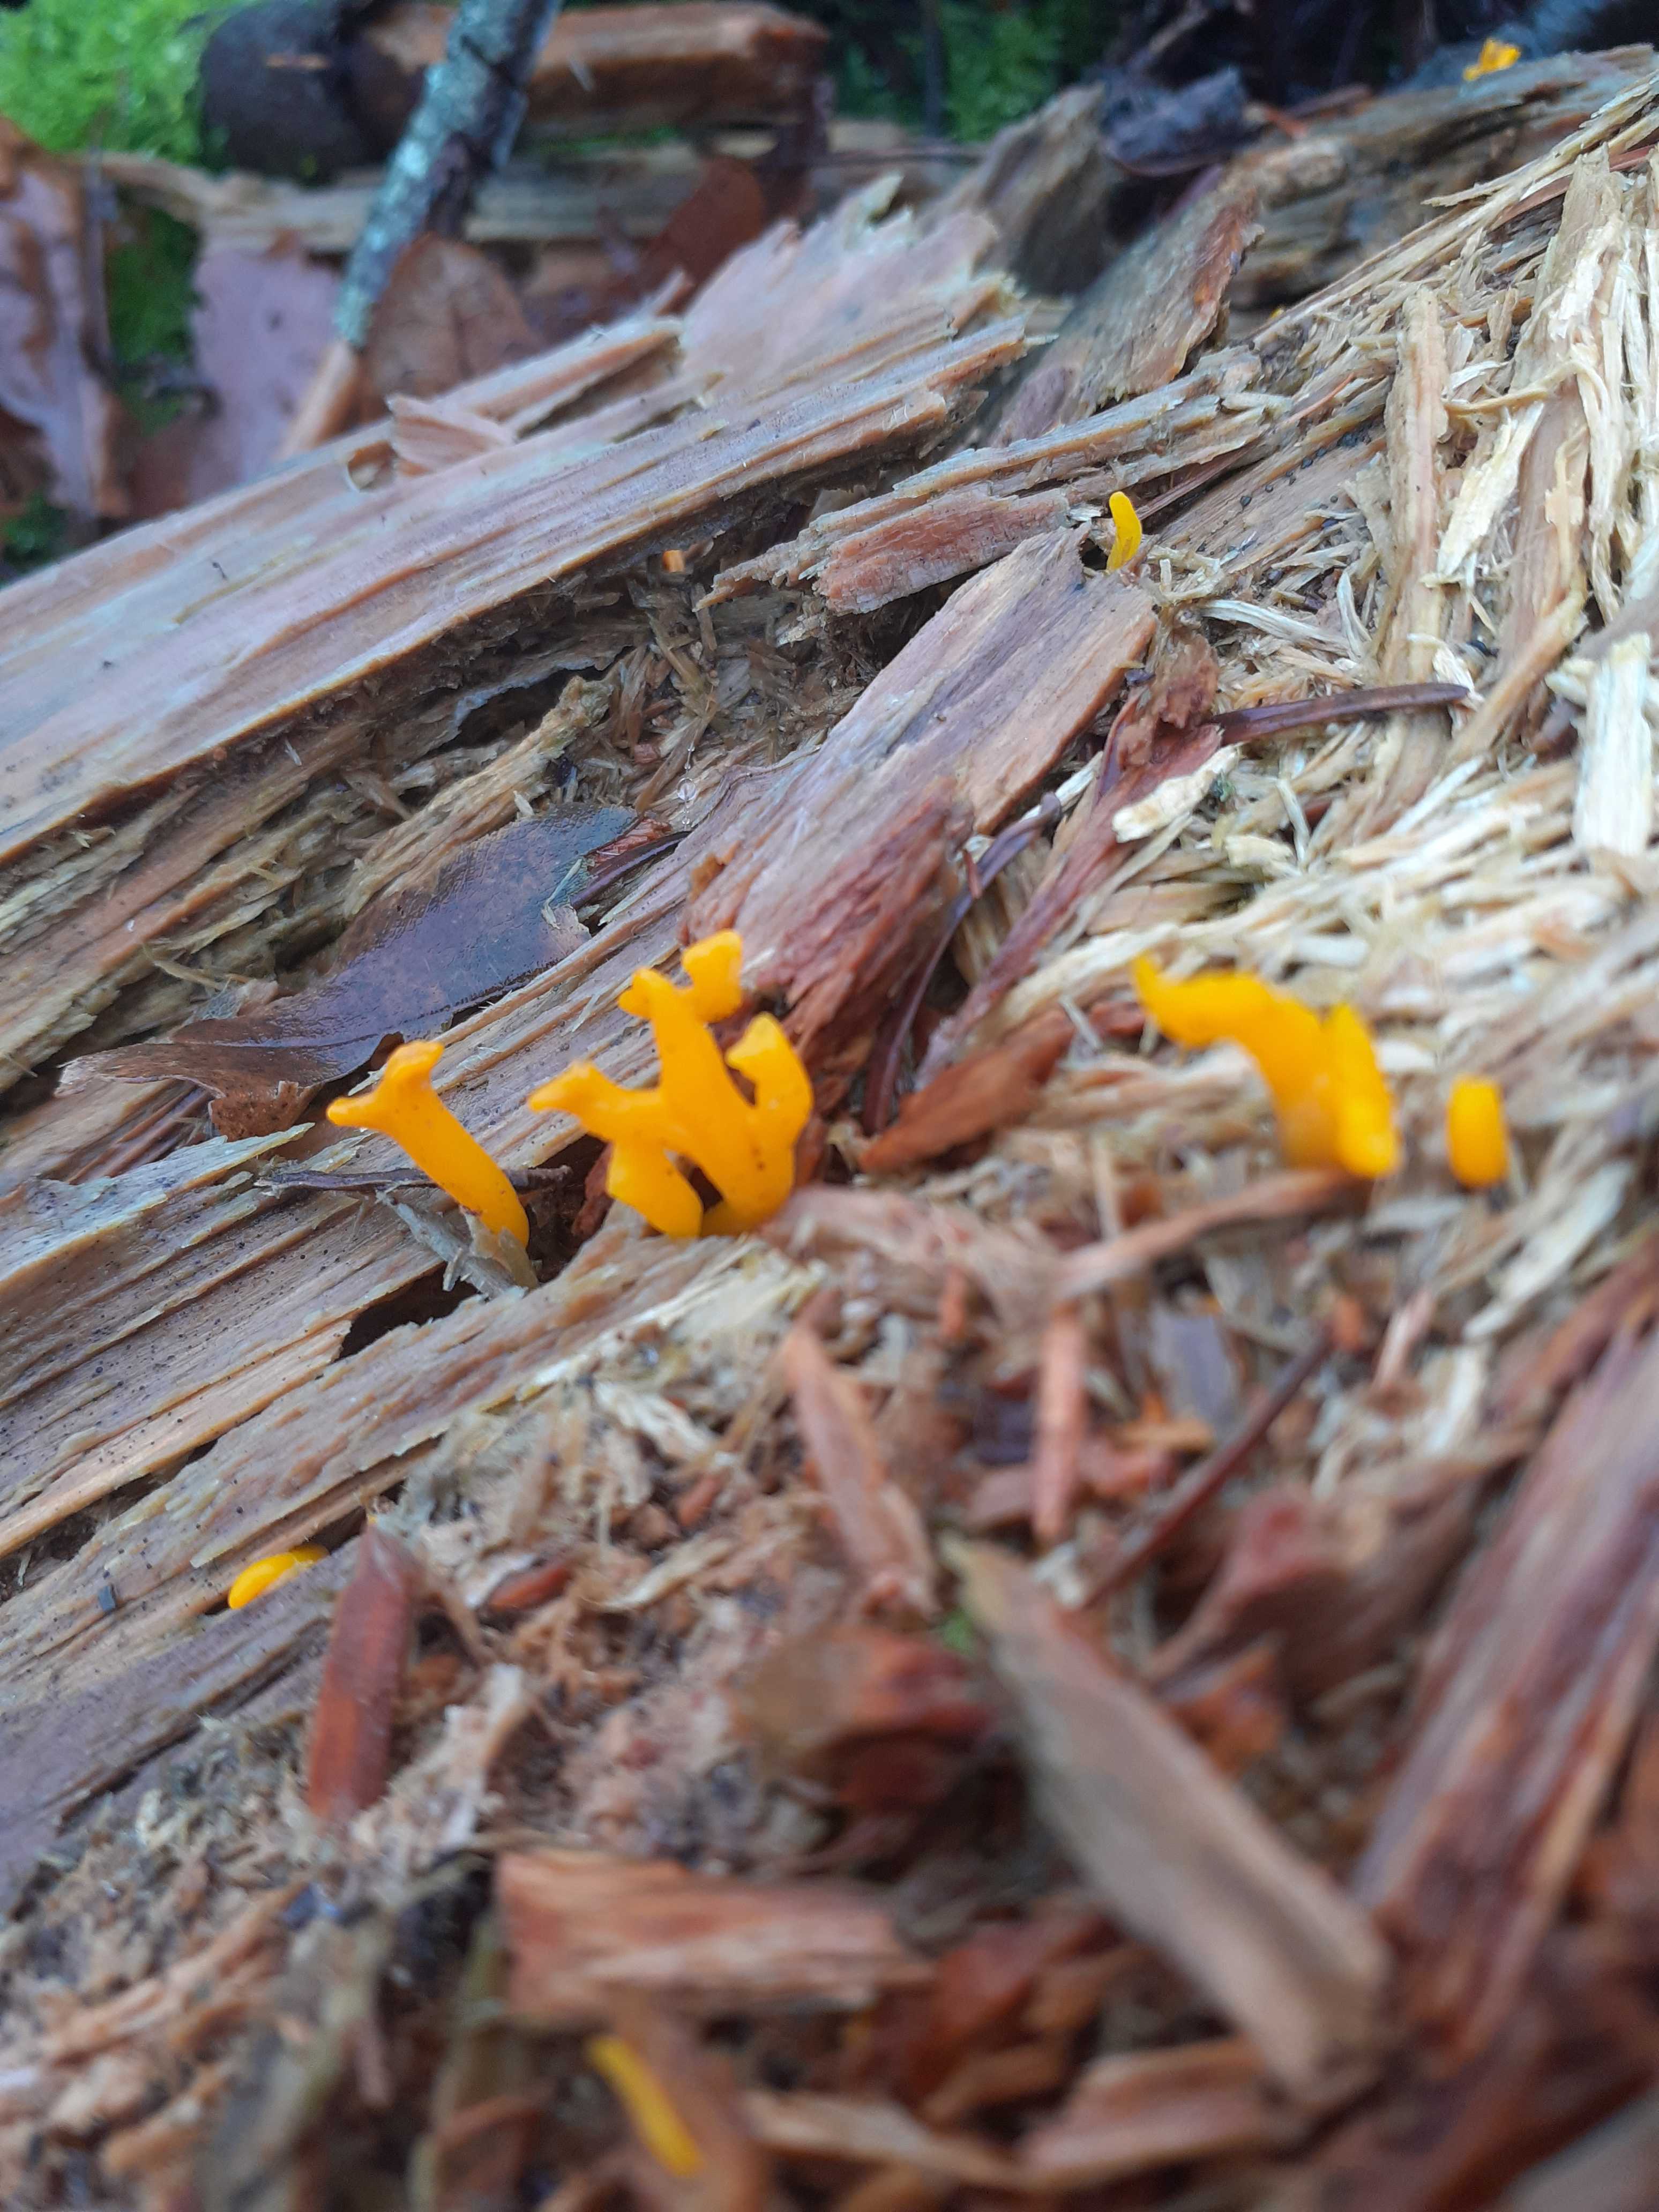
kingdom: Fungi
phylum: Basidiomycota
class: Dacrymycetes
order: Dacrymycetales
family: Dacrymycetaceae
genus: Calocera
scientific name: Calocera furcata
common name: fyrre-guldgaffel
